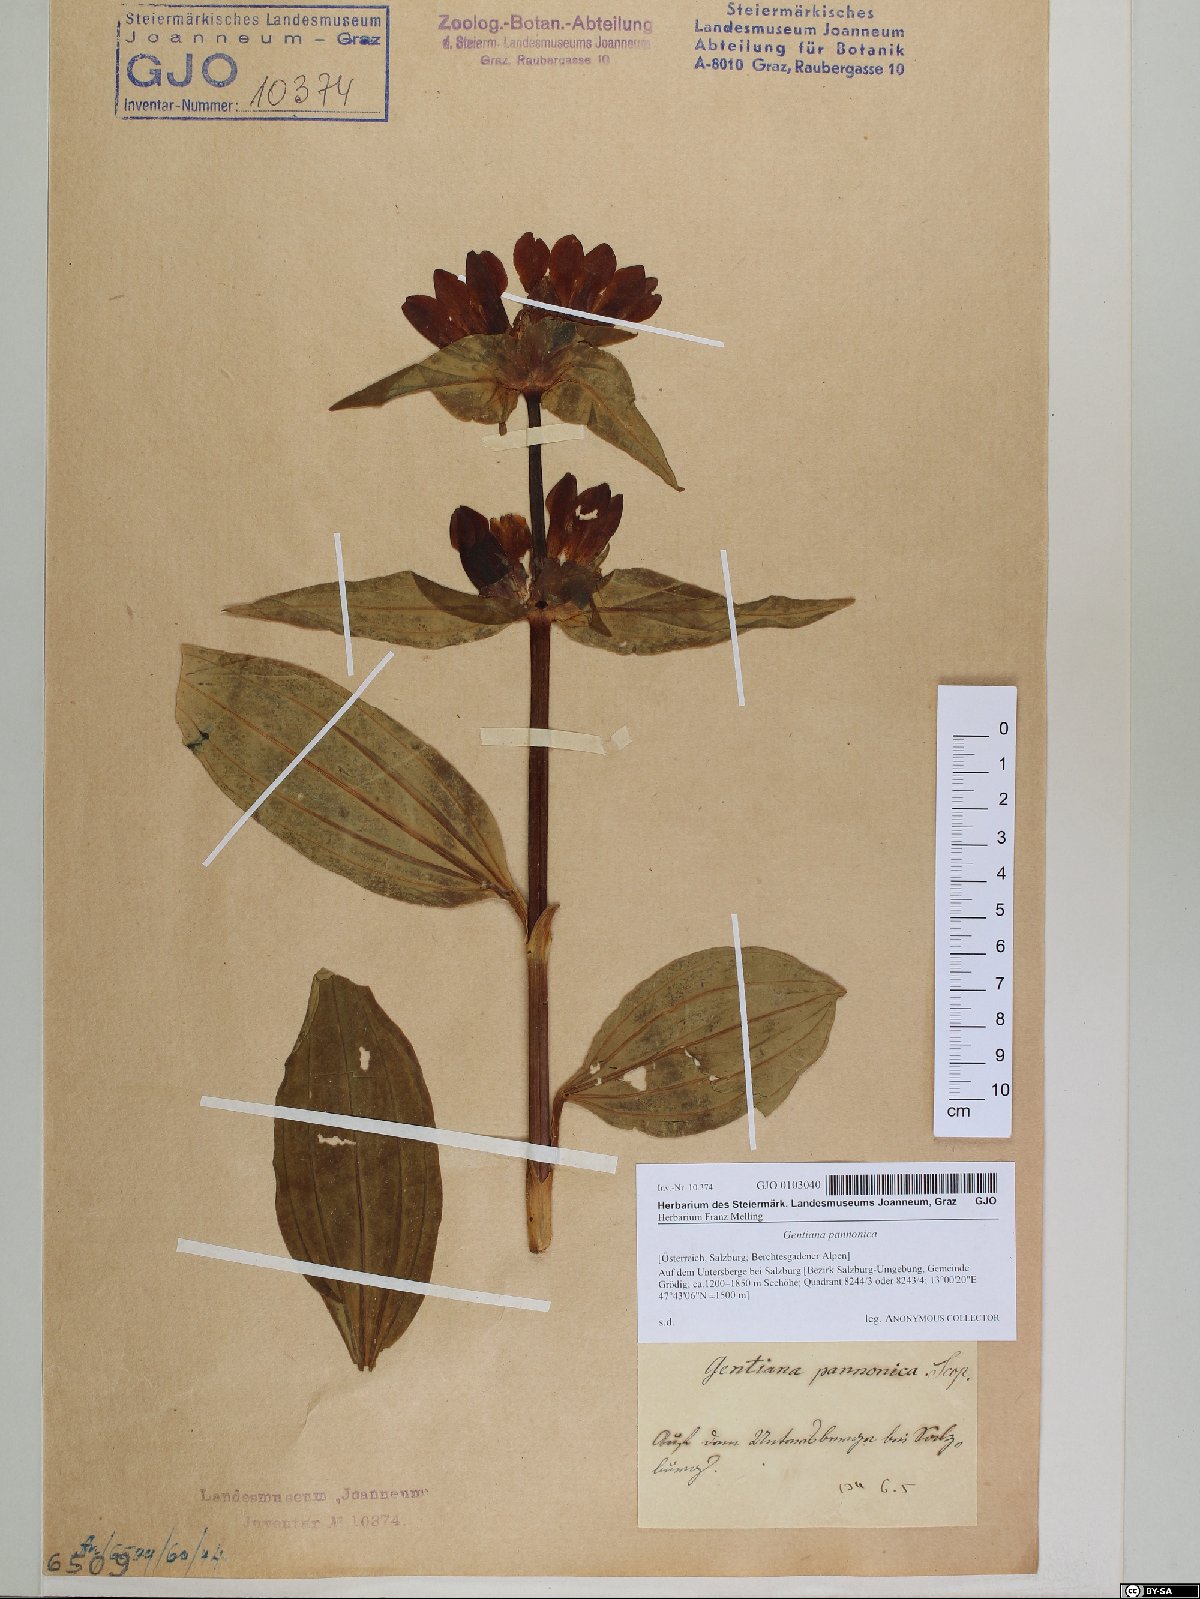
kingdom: Plantae
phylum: Tracheophyta
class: Magnoliopsida
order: Gentianales
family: Gentianaceae
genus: Gentiana
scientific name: Gentiana pannonica
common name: Hungarian gentian
